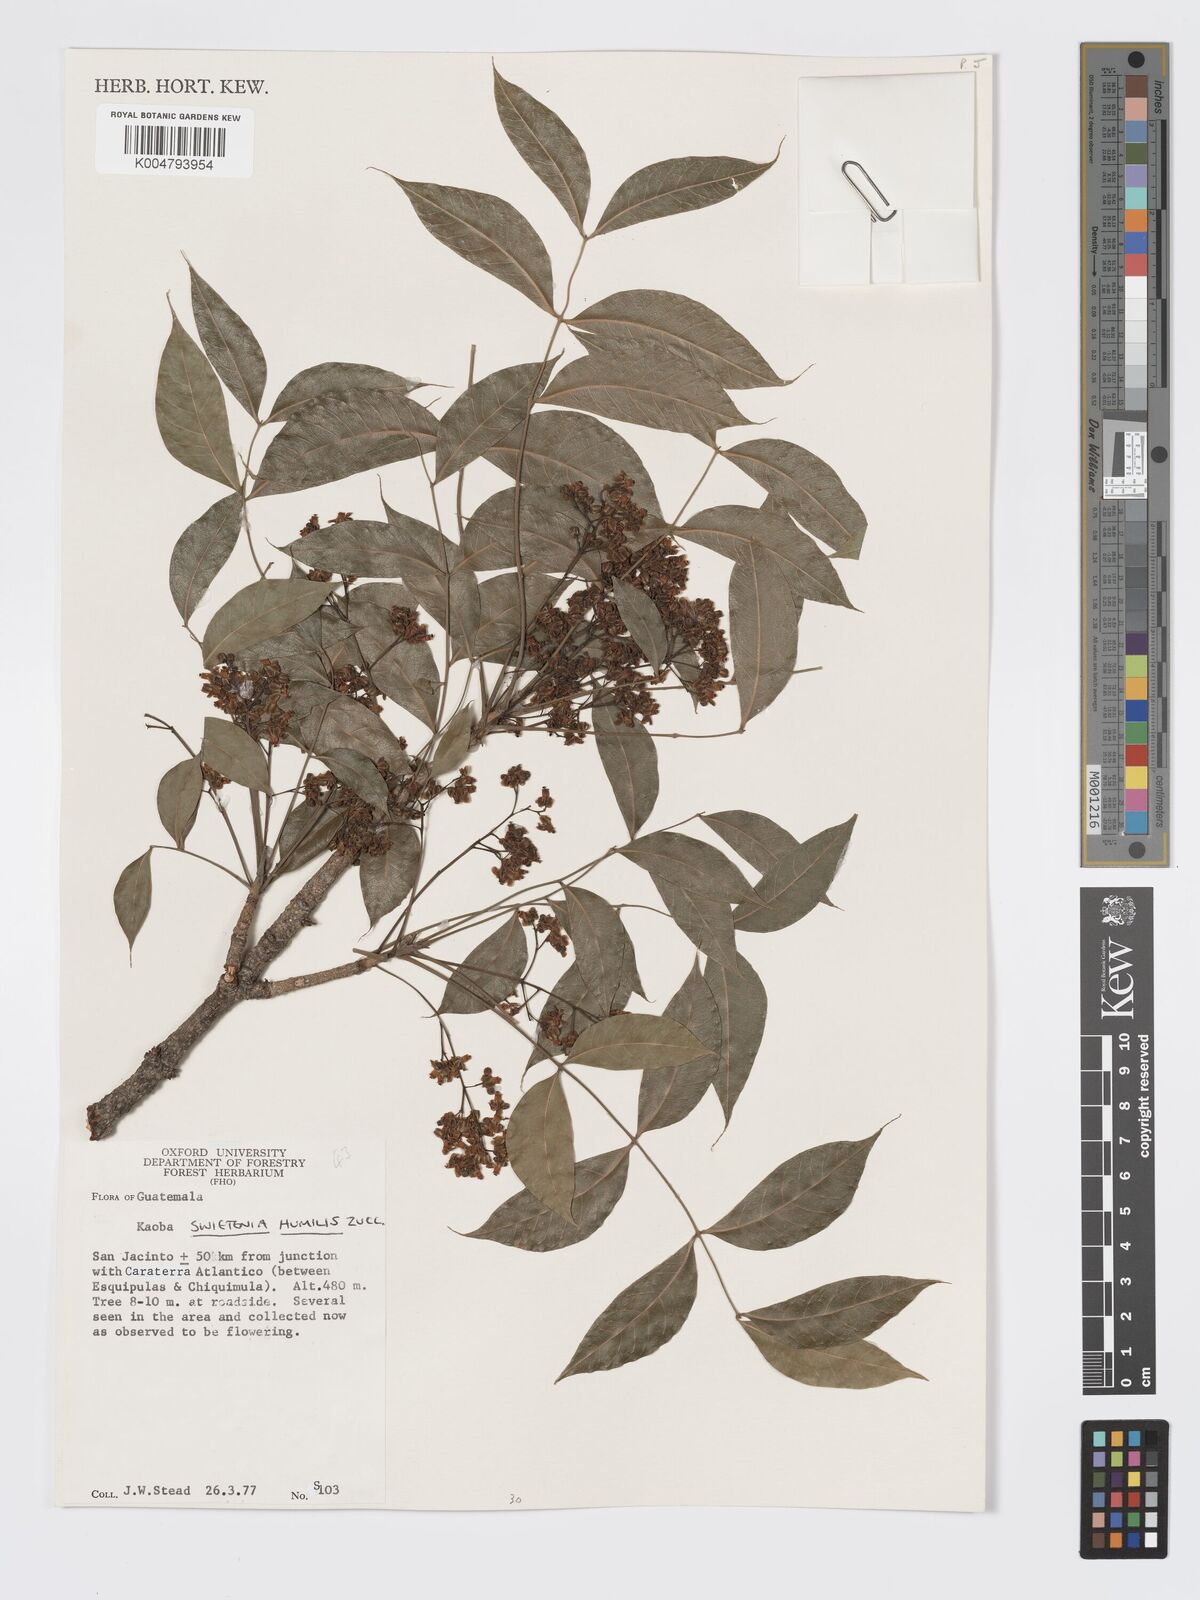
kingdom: Plantae
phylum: Tracheophyta
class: Magnoliopsida
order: Sapindales
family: Meliaceae
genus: Swietenia
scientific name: Swietenia humilis
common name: Pacific coast mahogany
